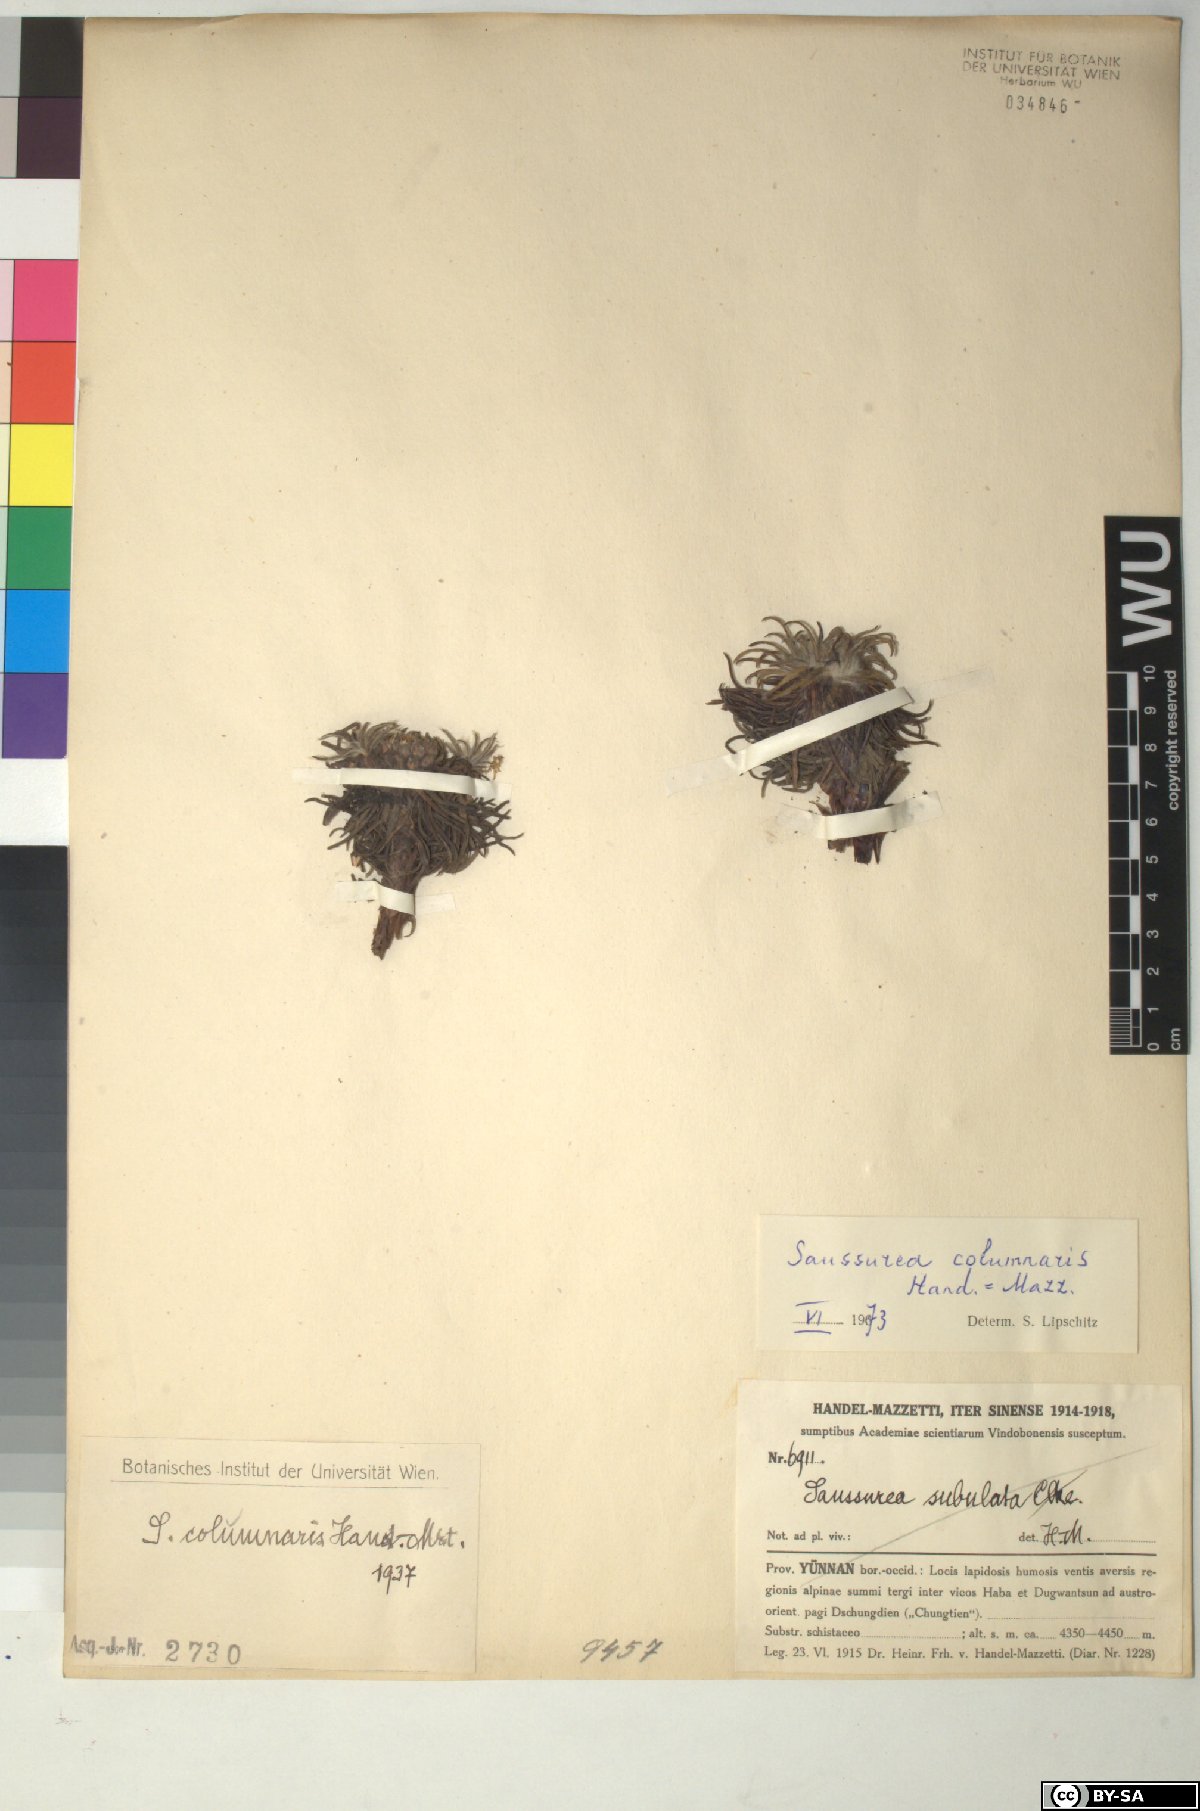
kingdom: Plantae
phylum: Tracheophyta
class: Magnoliopsida
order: Asterales
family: Asteraceae
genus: Saussurea
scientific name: Saussurea columnaris
